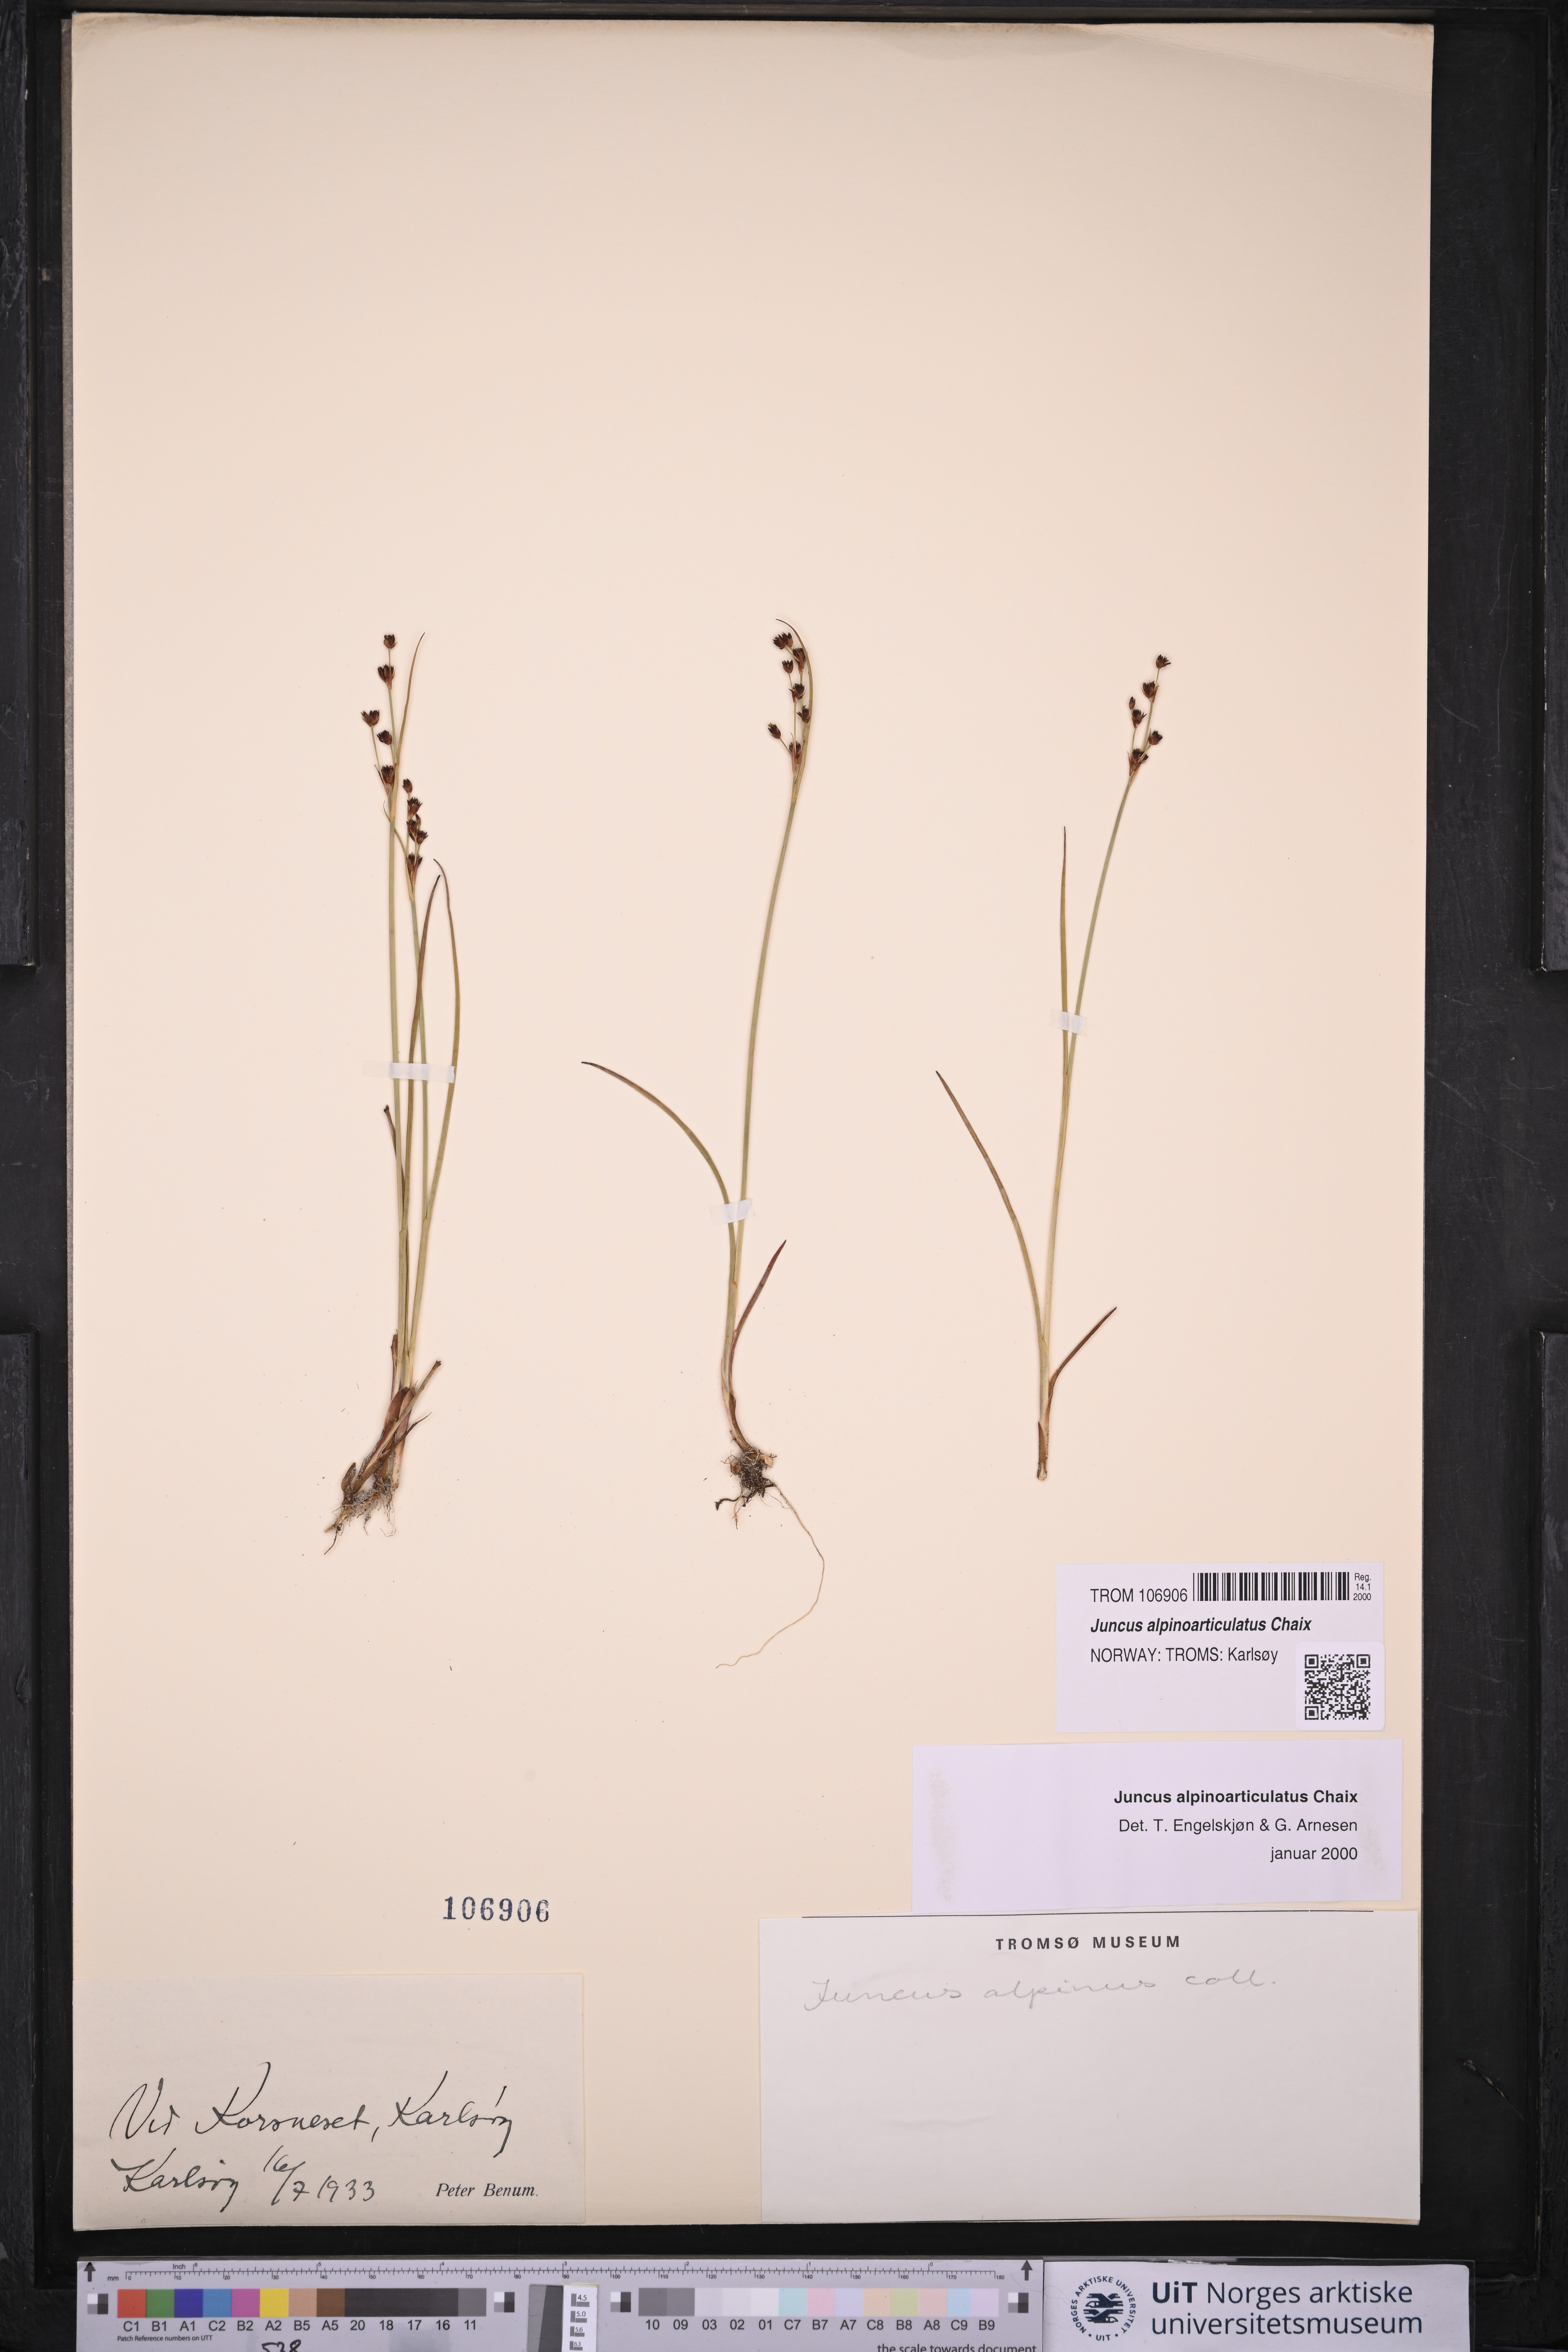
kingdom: Plantae
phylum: Tracheophyta
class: Liliopsida
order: Poales
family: Juncaceae
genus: Juncus
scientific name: Juncus alpinoarticulatus
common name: Alpine rush
